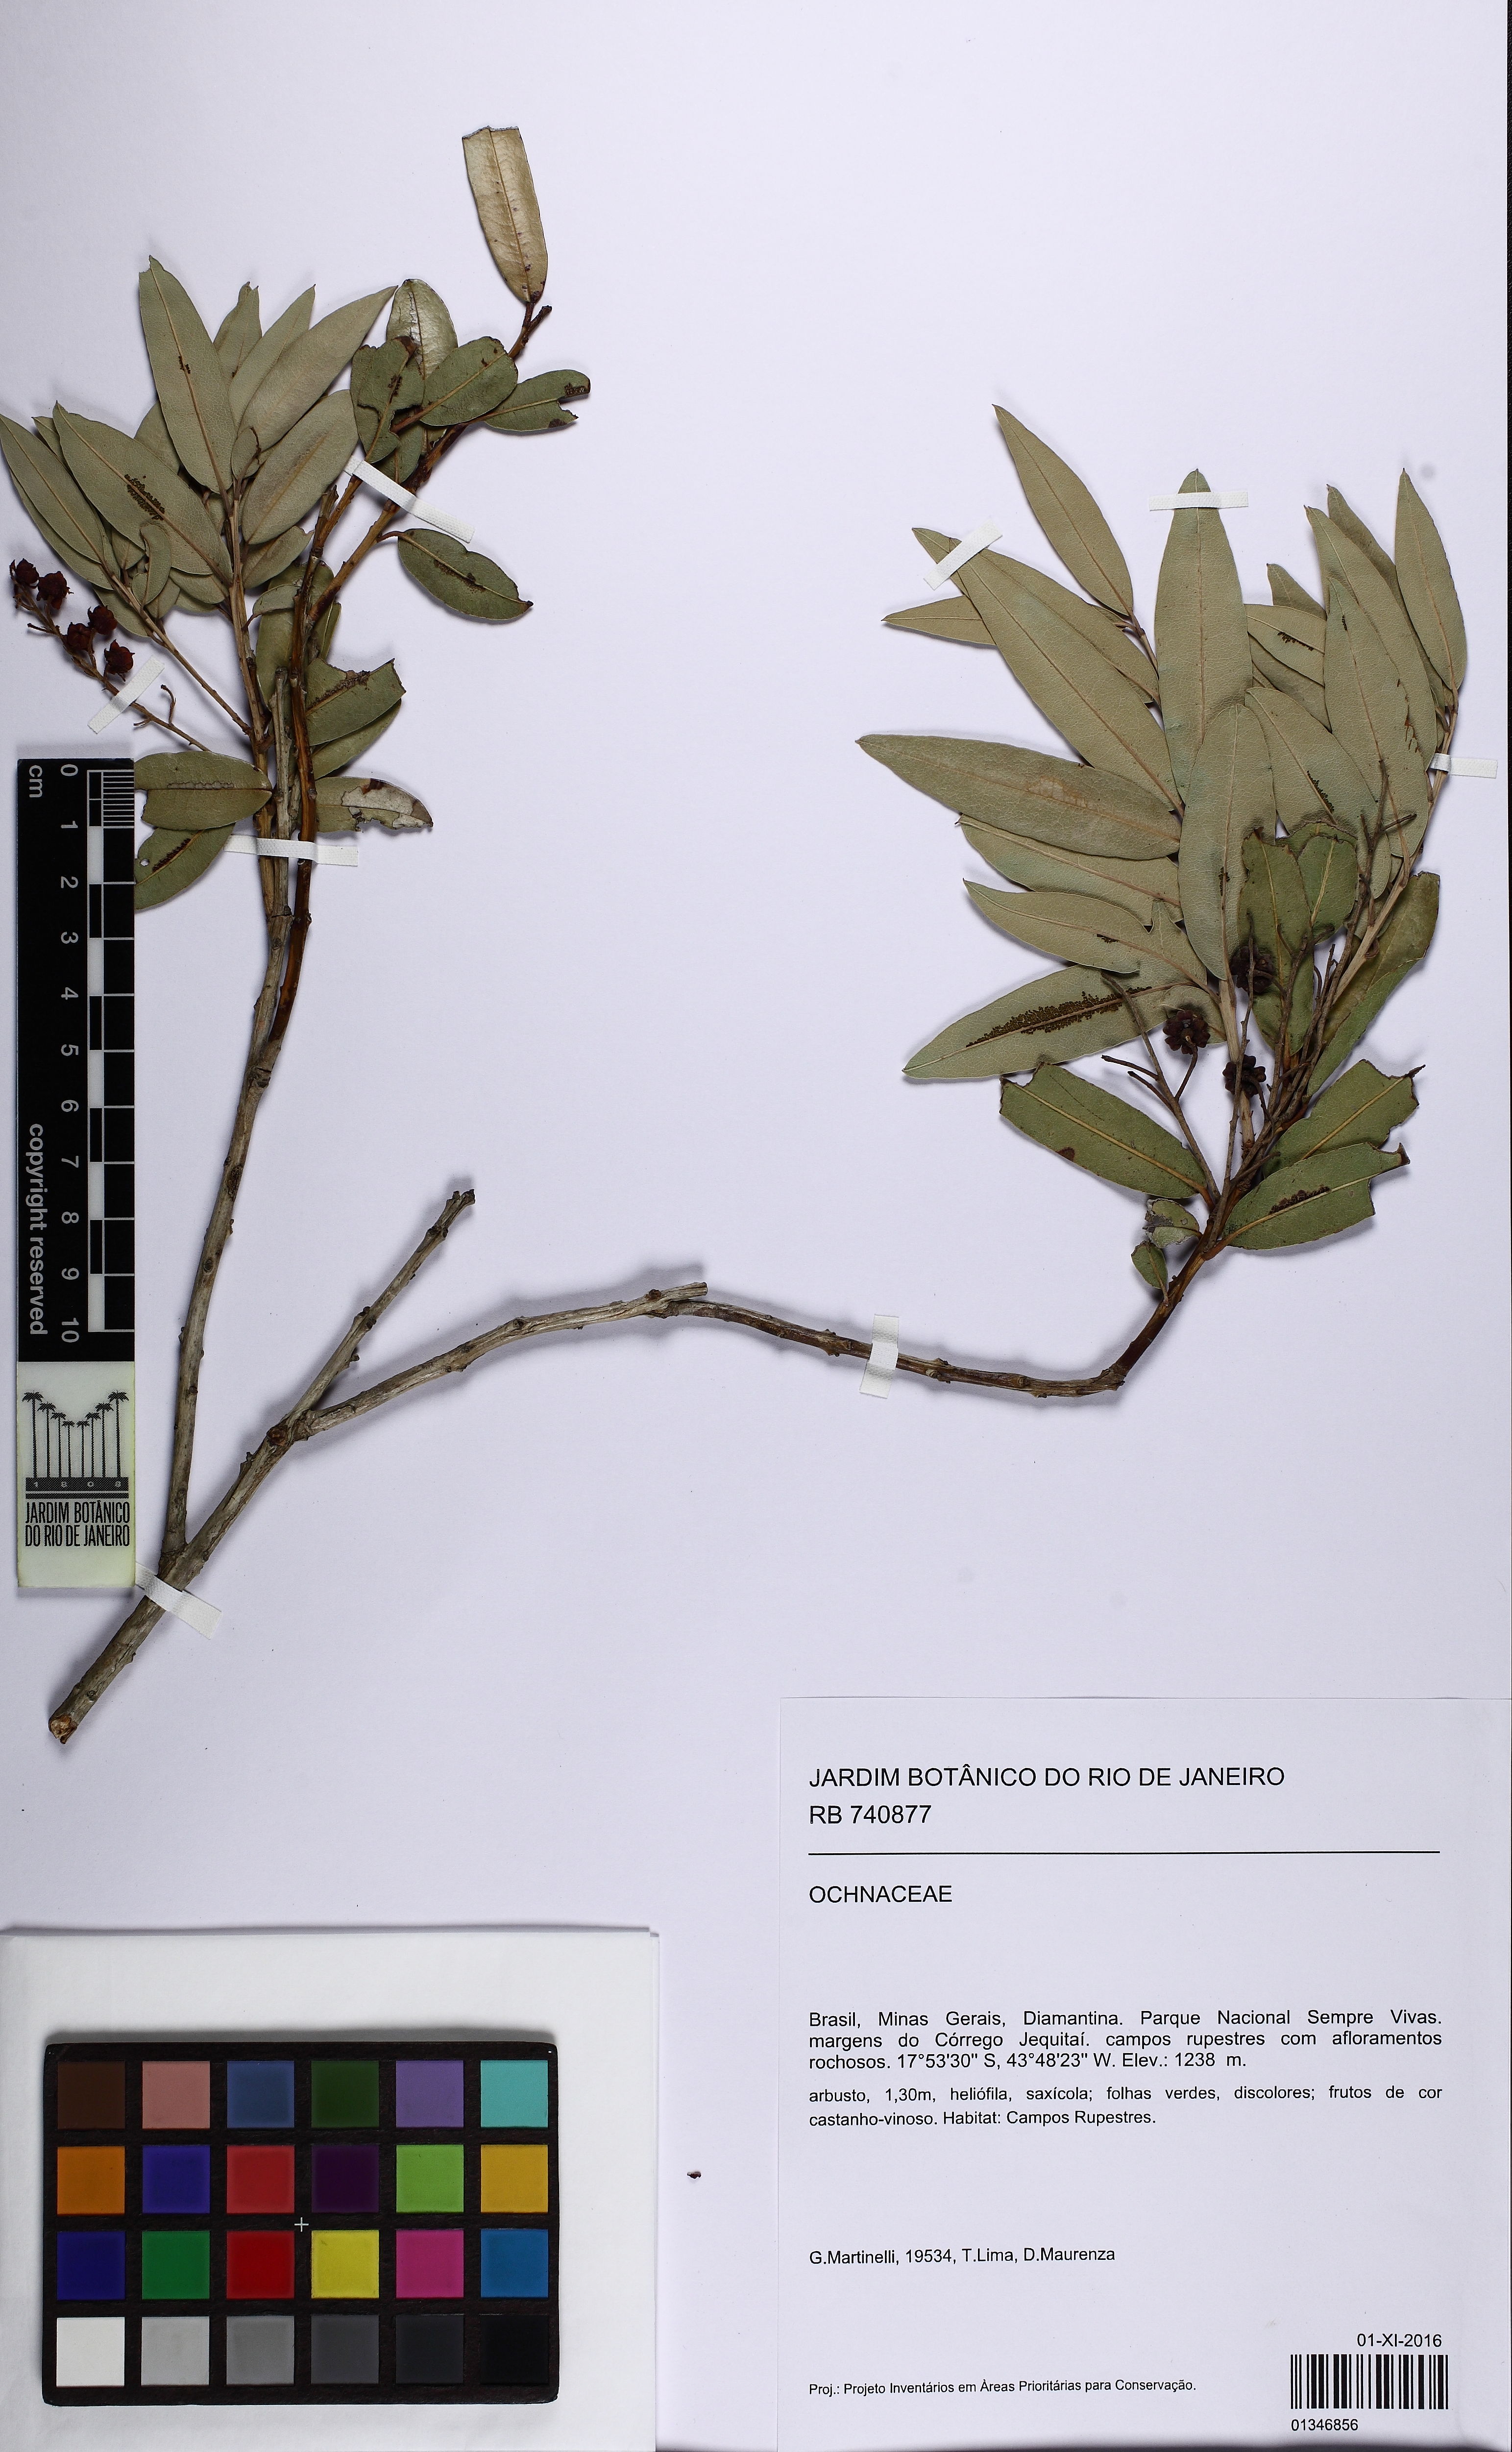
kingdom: Plantae
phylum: Tracheophyta
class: Magnoliopsida
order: Ericales
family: Ericaceae
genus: Agarista
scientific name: Agarista oleifolia
